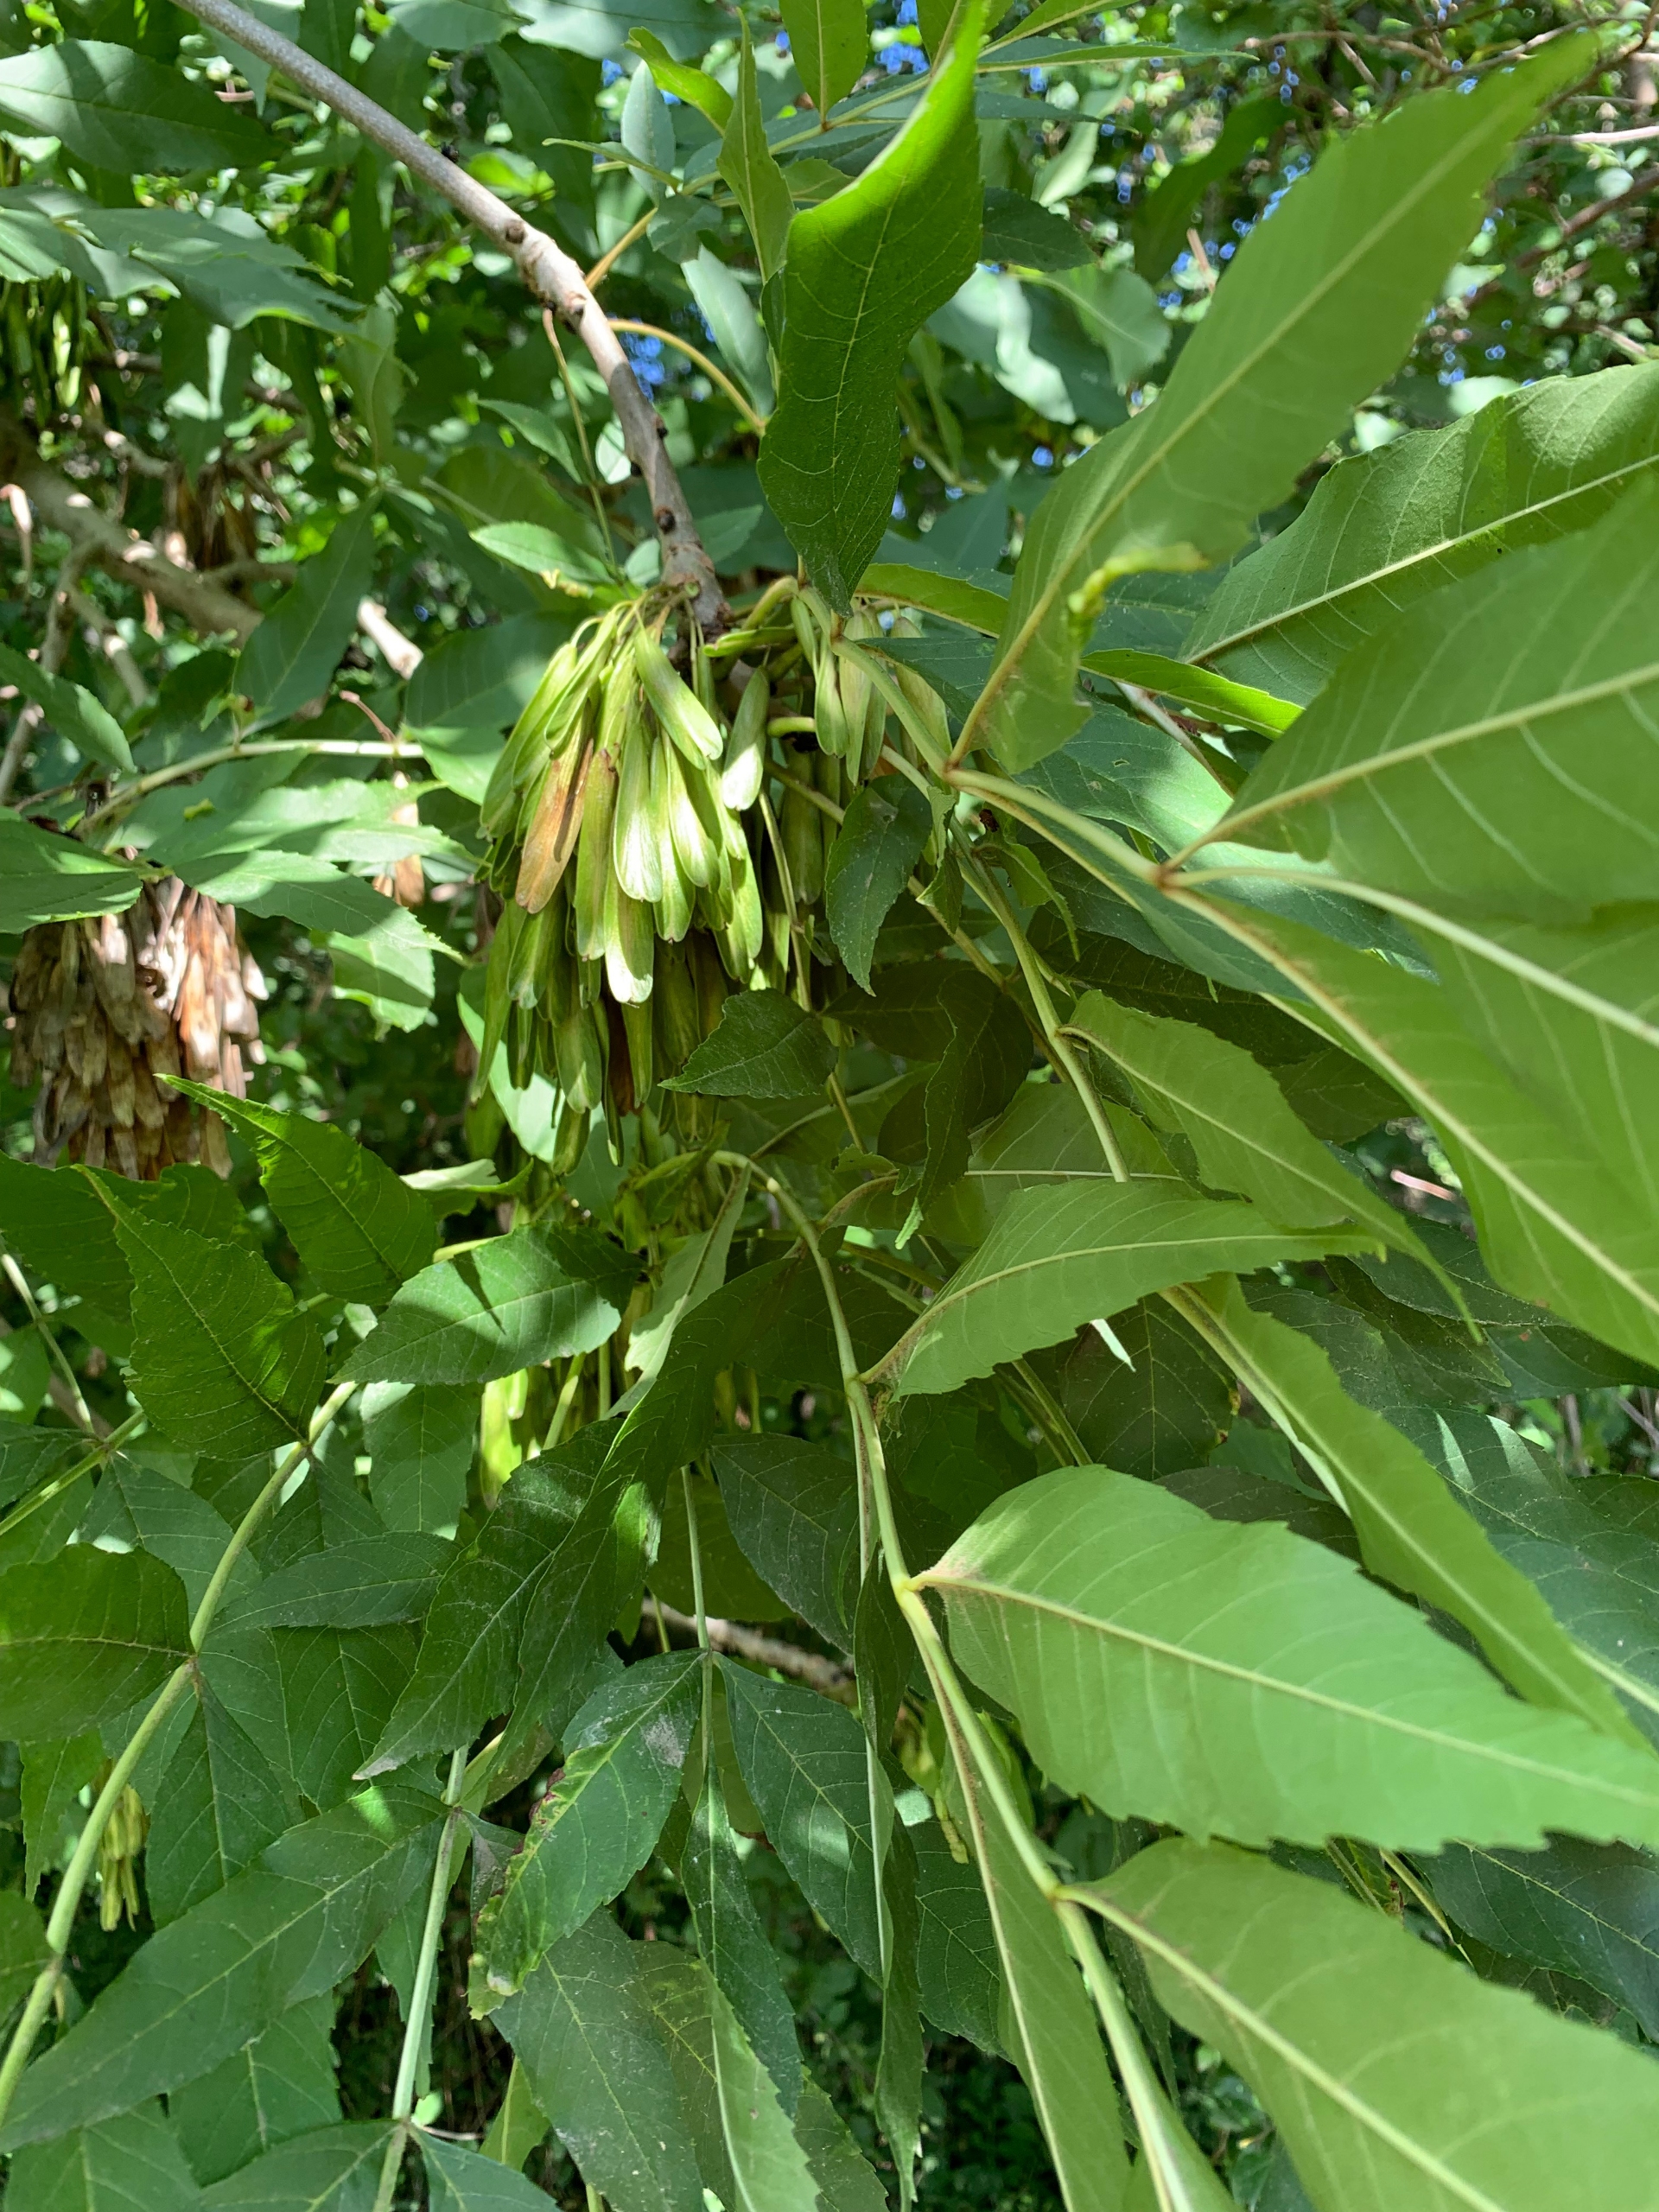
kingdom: Plantae
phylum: Tracheophyta
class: Magnoliopsida
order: Lamiales
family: Oleaceae
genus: Fraxinus
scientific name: Fraxinus excelsior
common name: Ask
